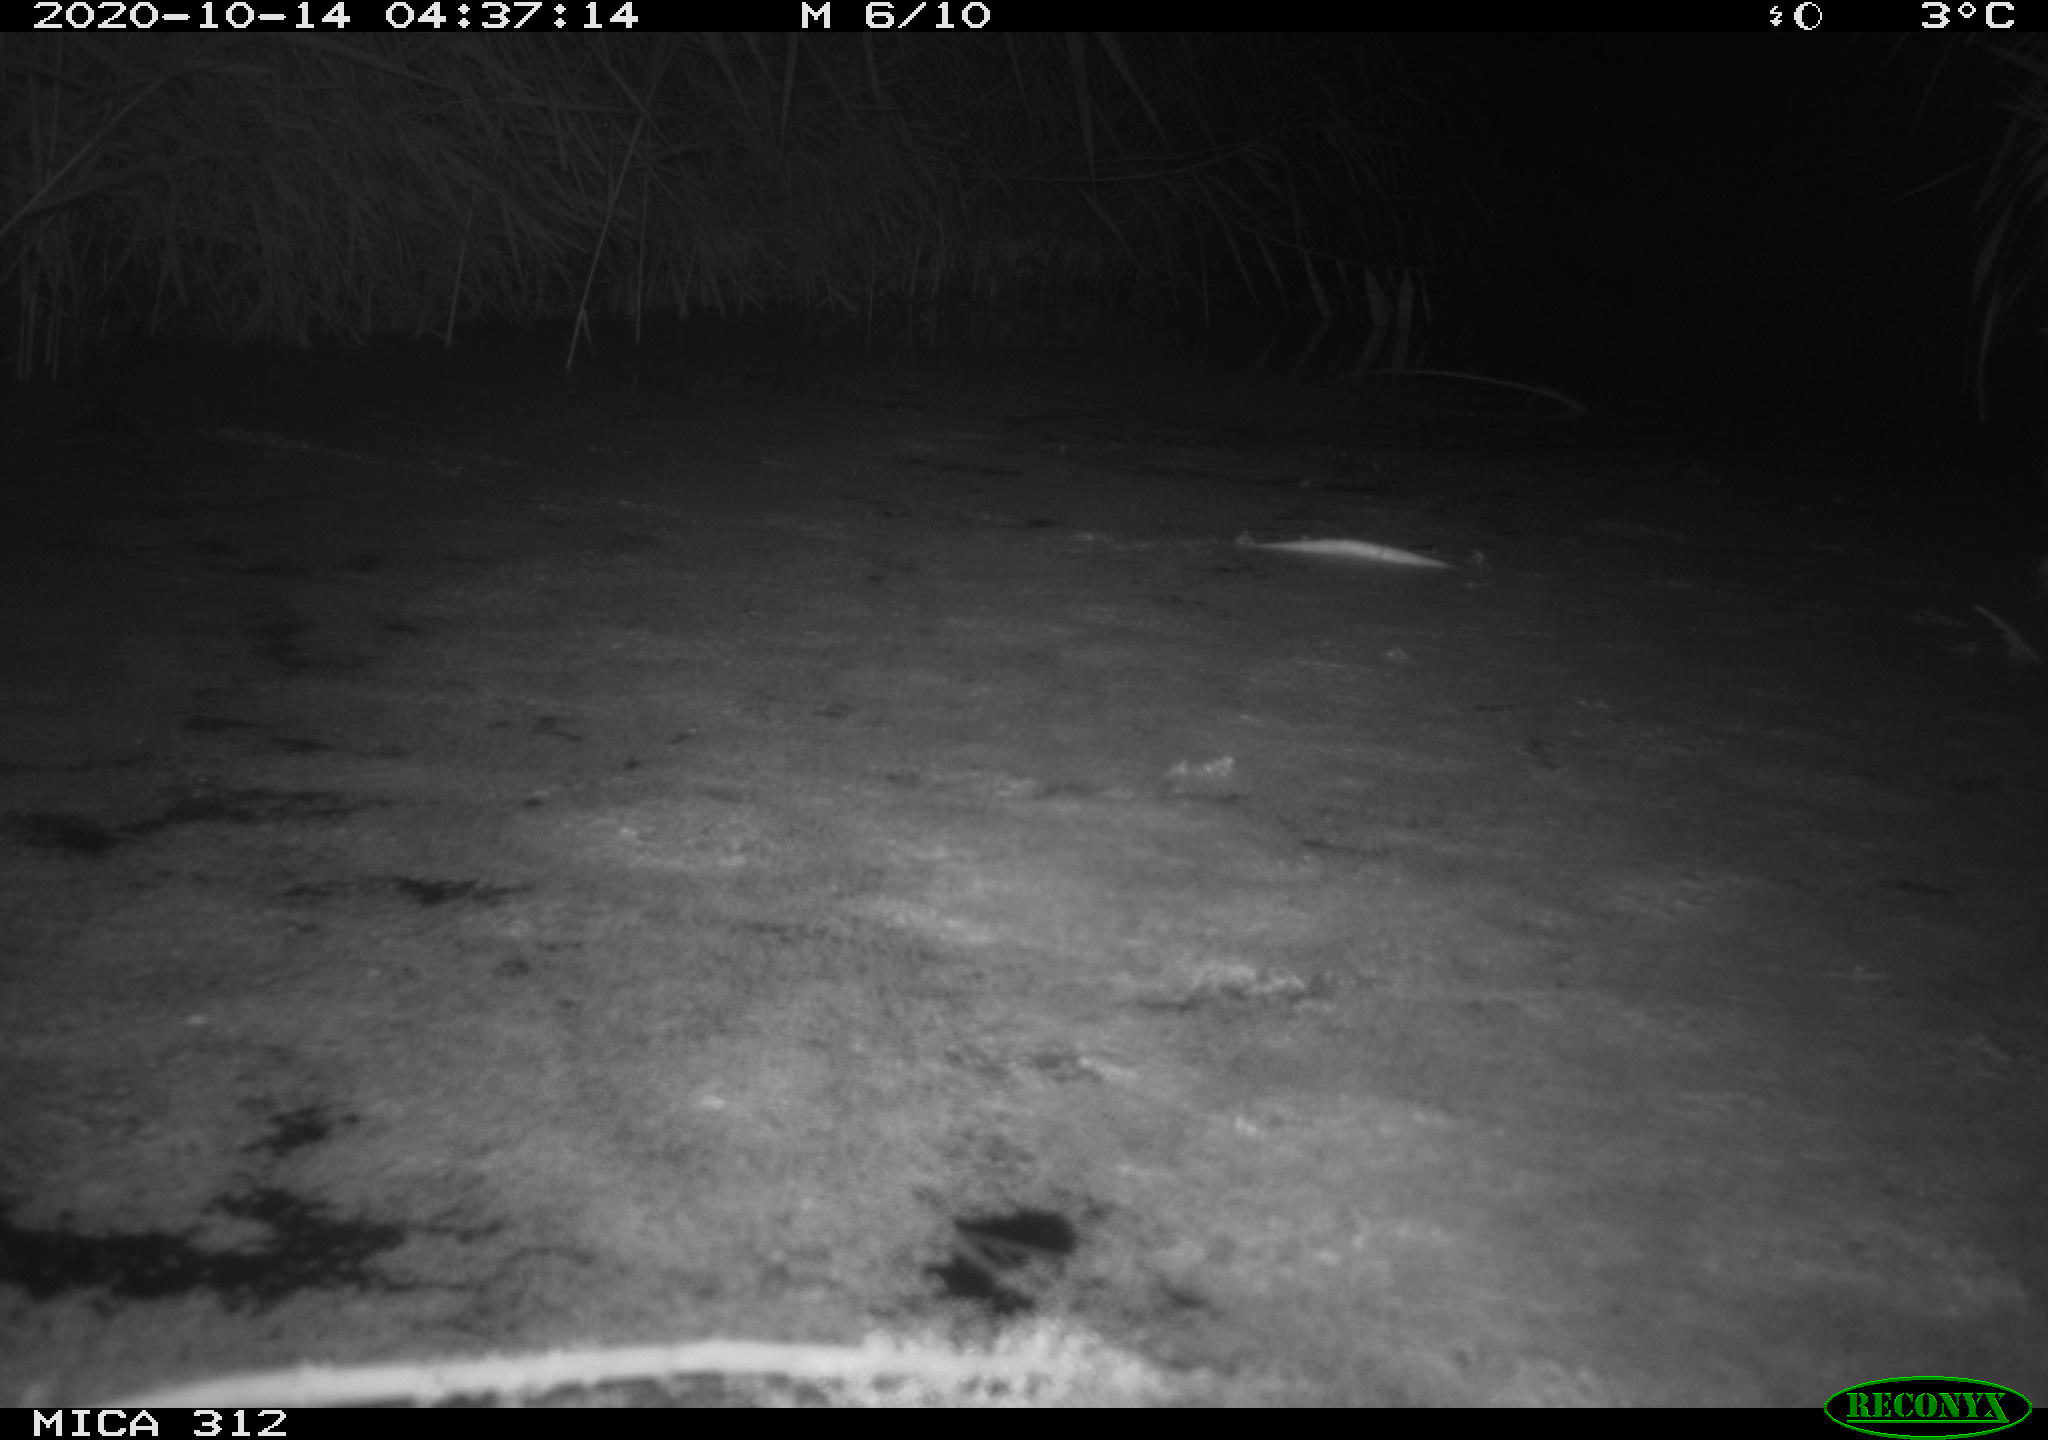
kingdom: Animalia
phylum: Chordata
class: Mammalia
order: Rodentia
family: Muridae
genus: Rattus
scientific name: Rattus norvegicus
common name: Brown rat
